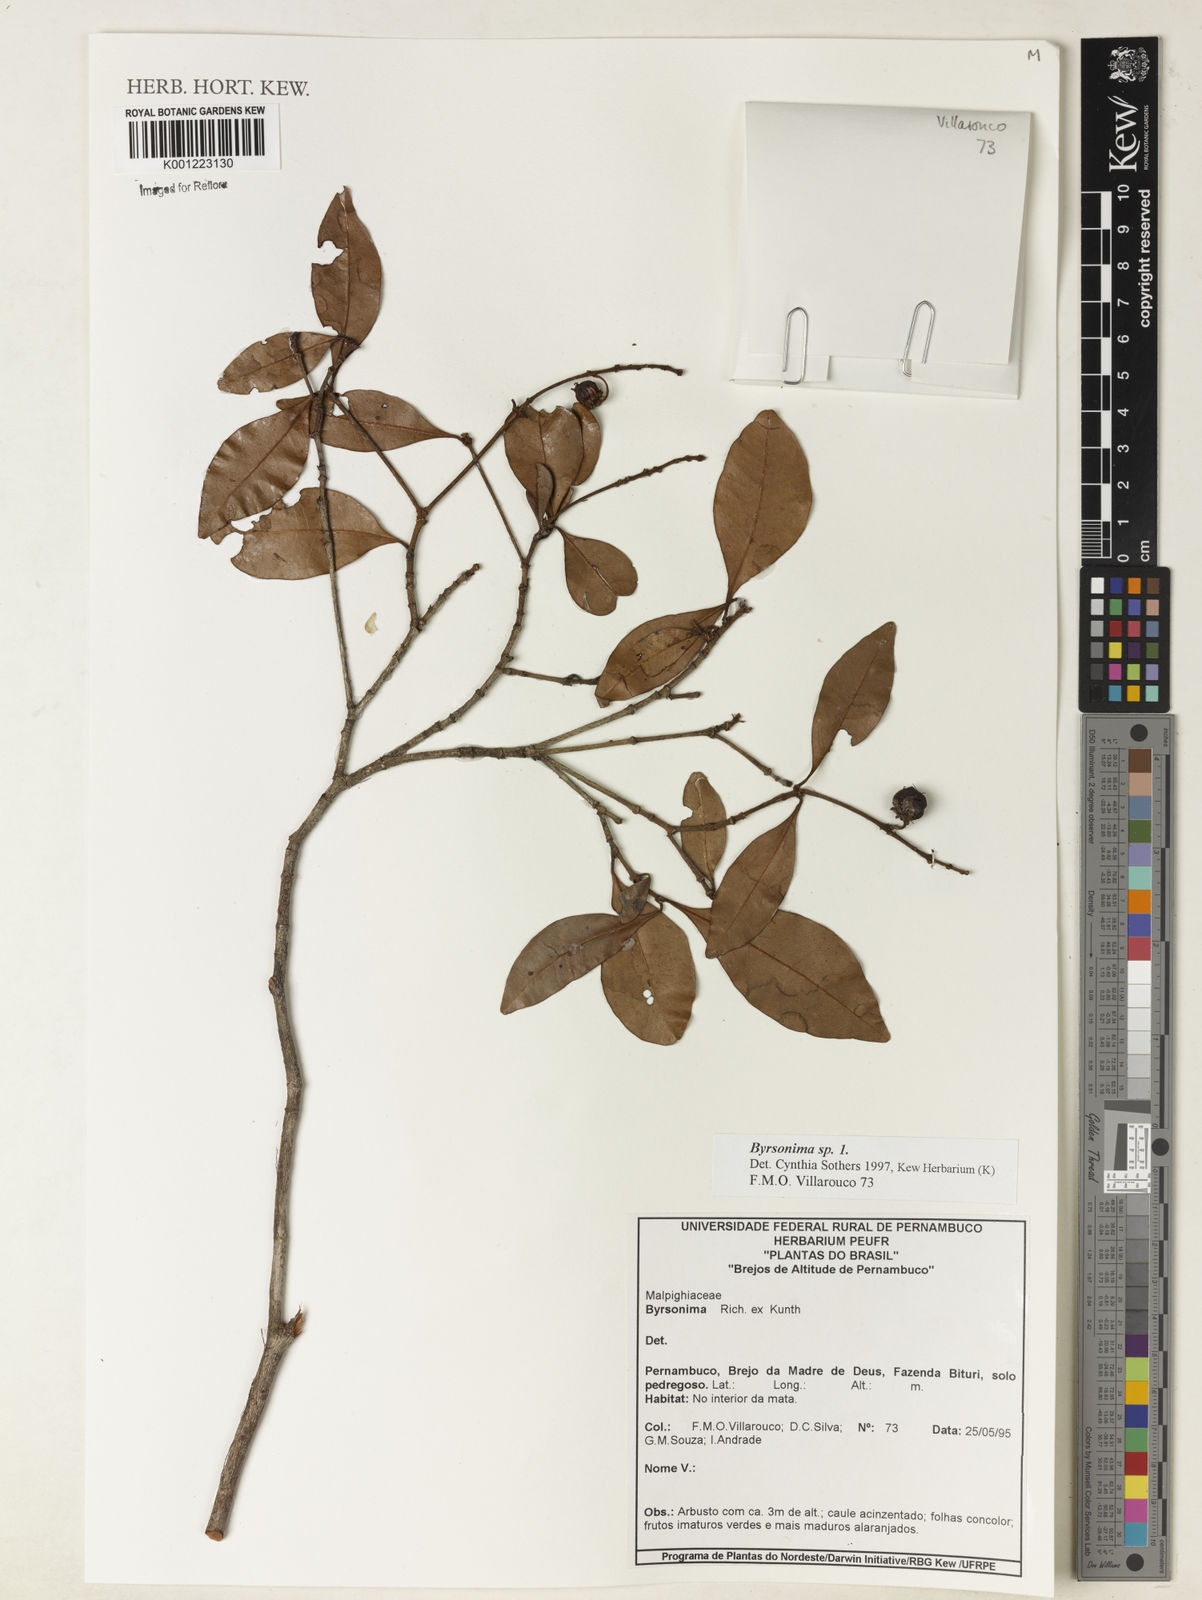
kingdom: Plantae
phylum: Tracheophyta
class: Magnoliopsida
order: Malpighiales
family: Malpighiaceae
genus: Byrsonima
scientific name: Byrsonima
